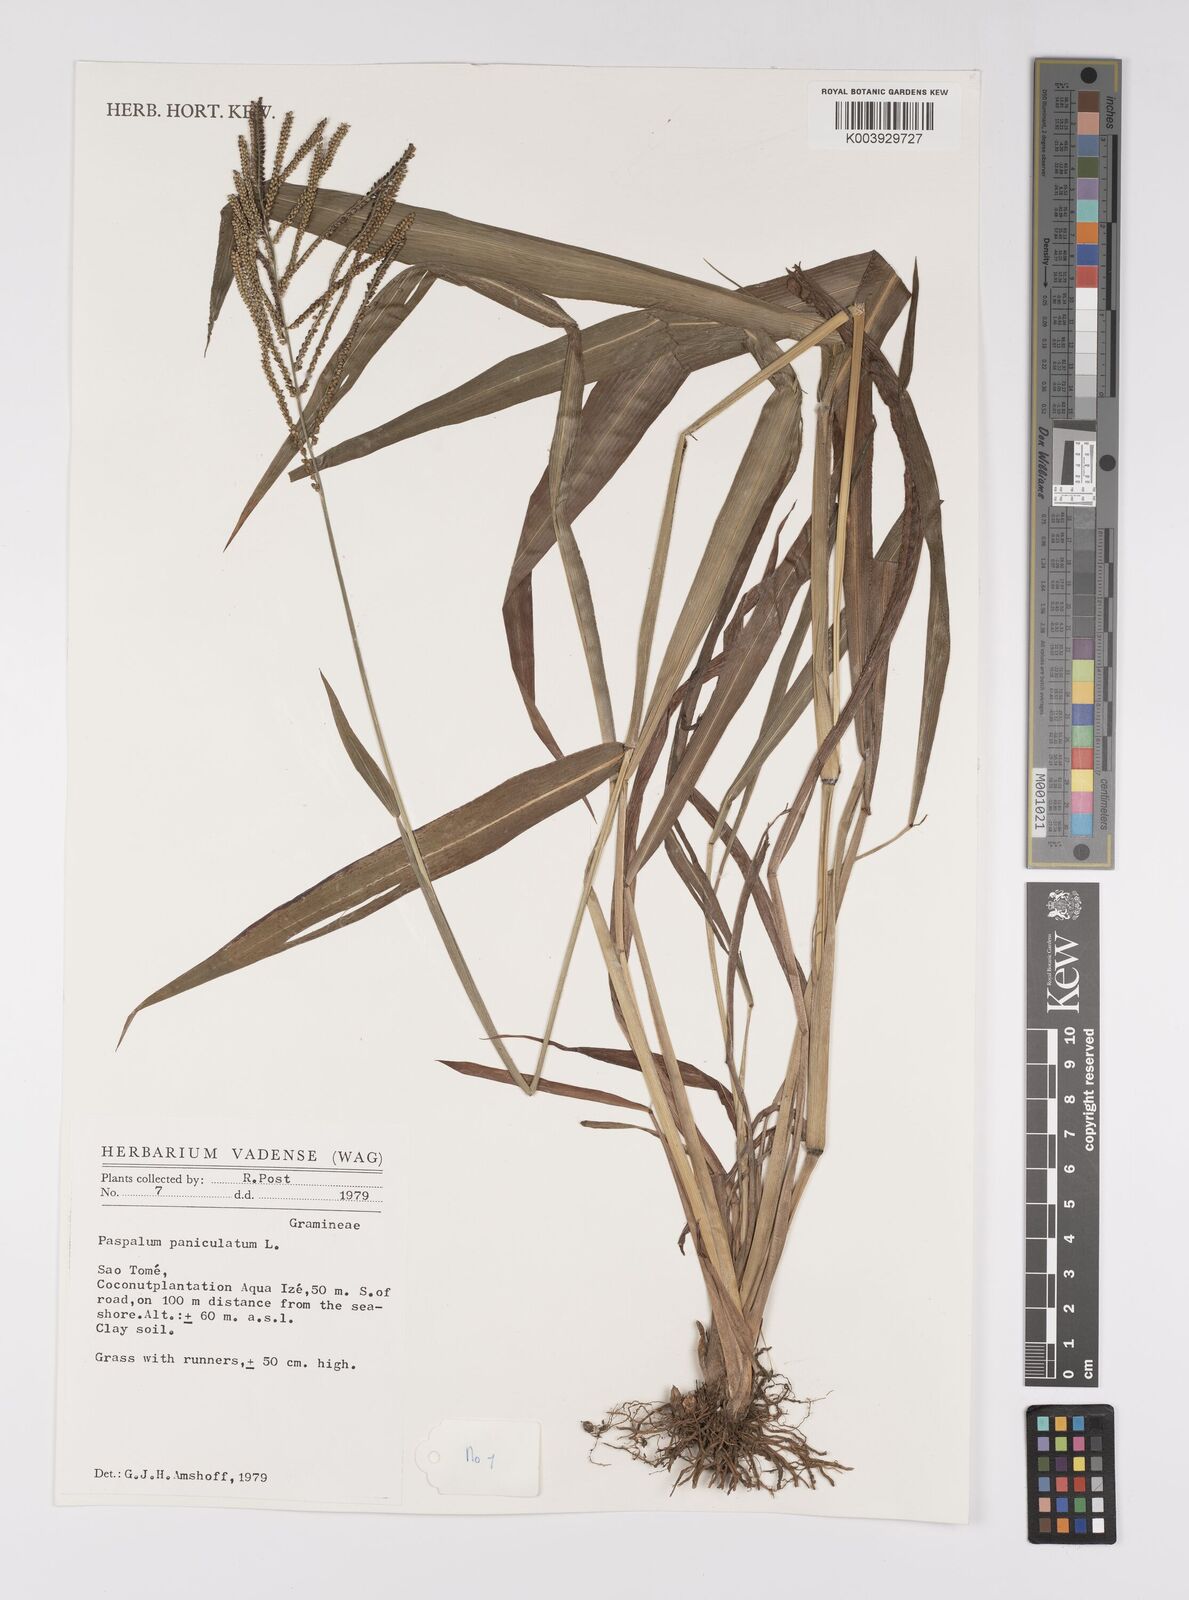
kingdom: Plantae
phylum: Tracheophyta
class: Liliopsida
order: Poales
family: Poaceae
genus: Paspalum
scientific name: Paspalum paniculatum
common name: Arrocillo
